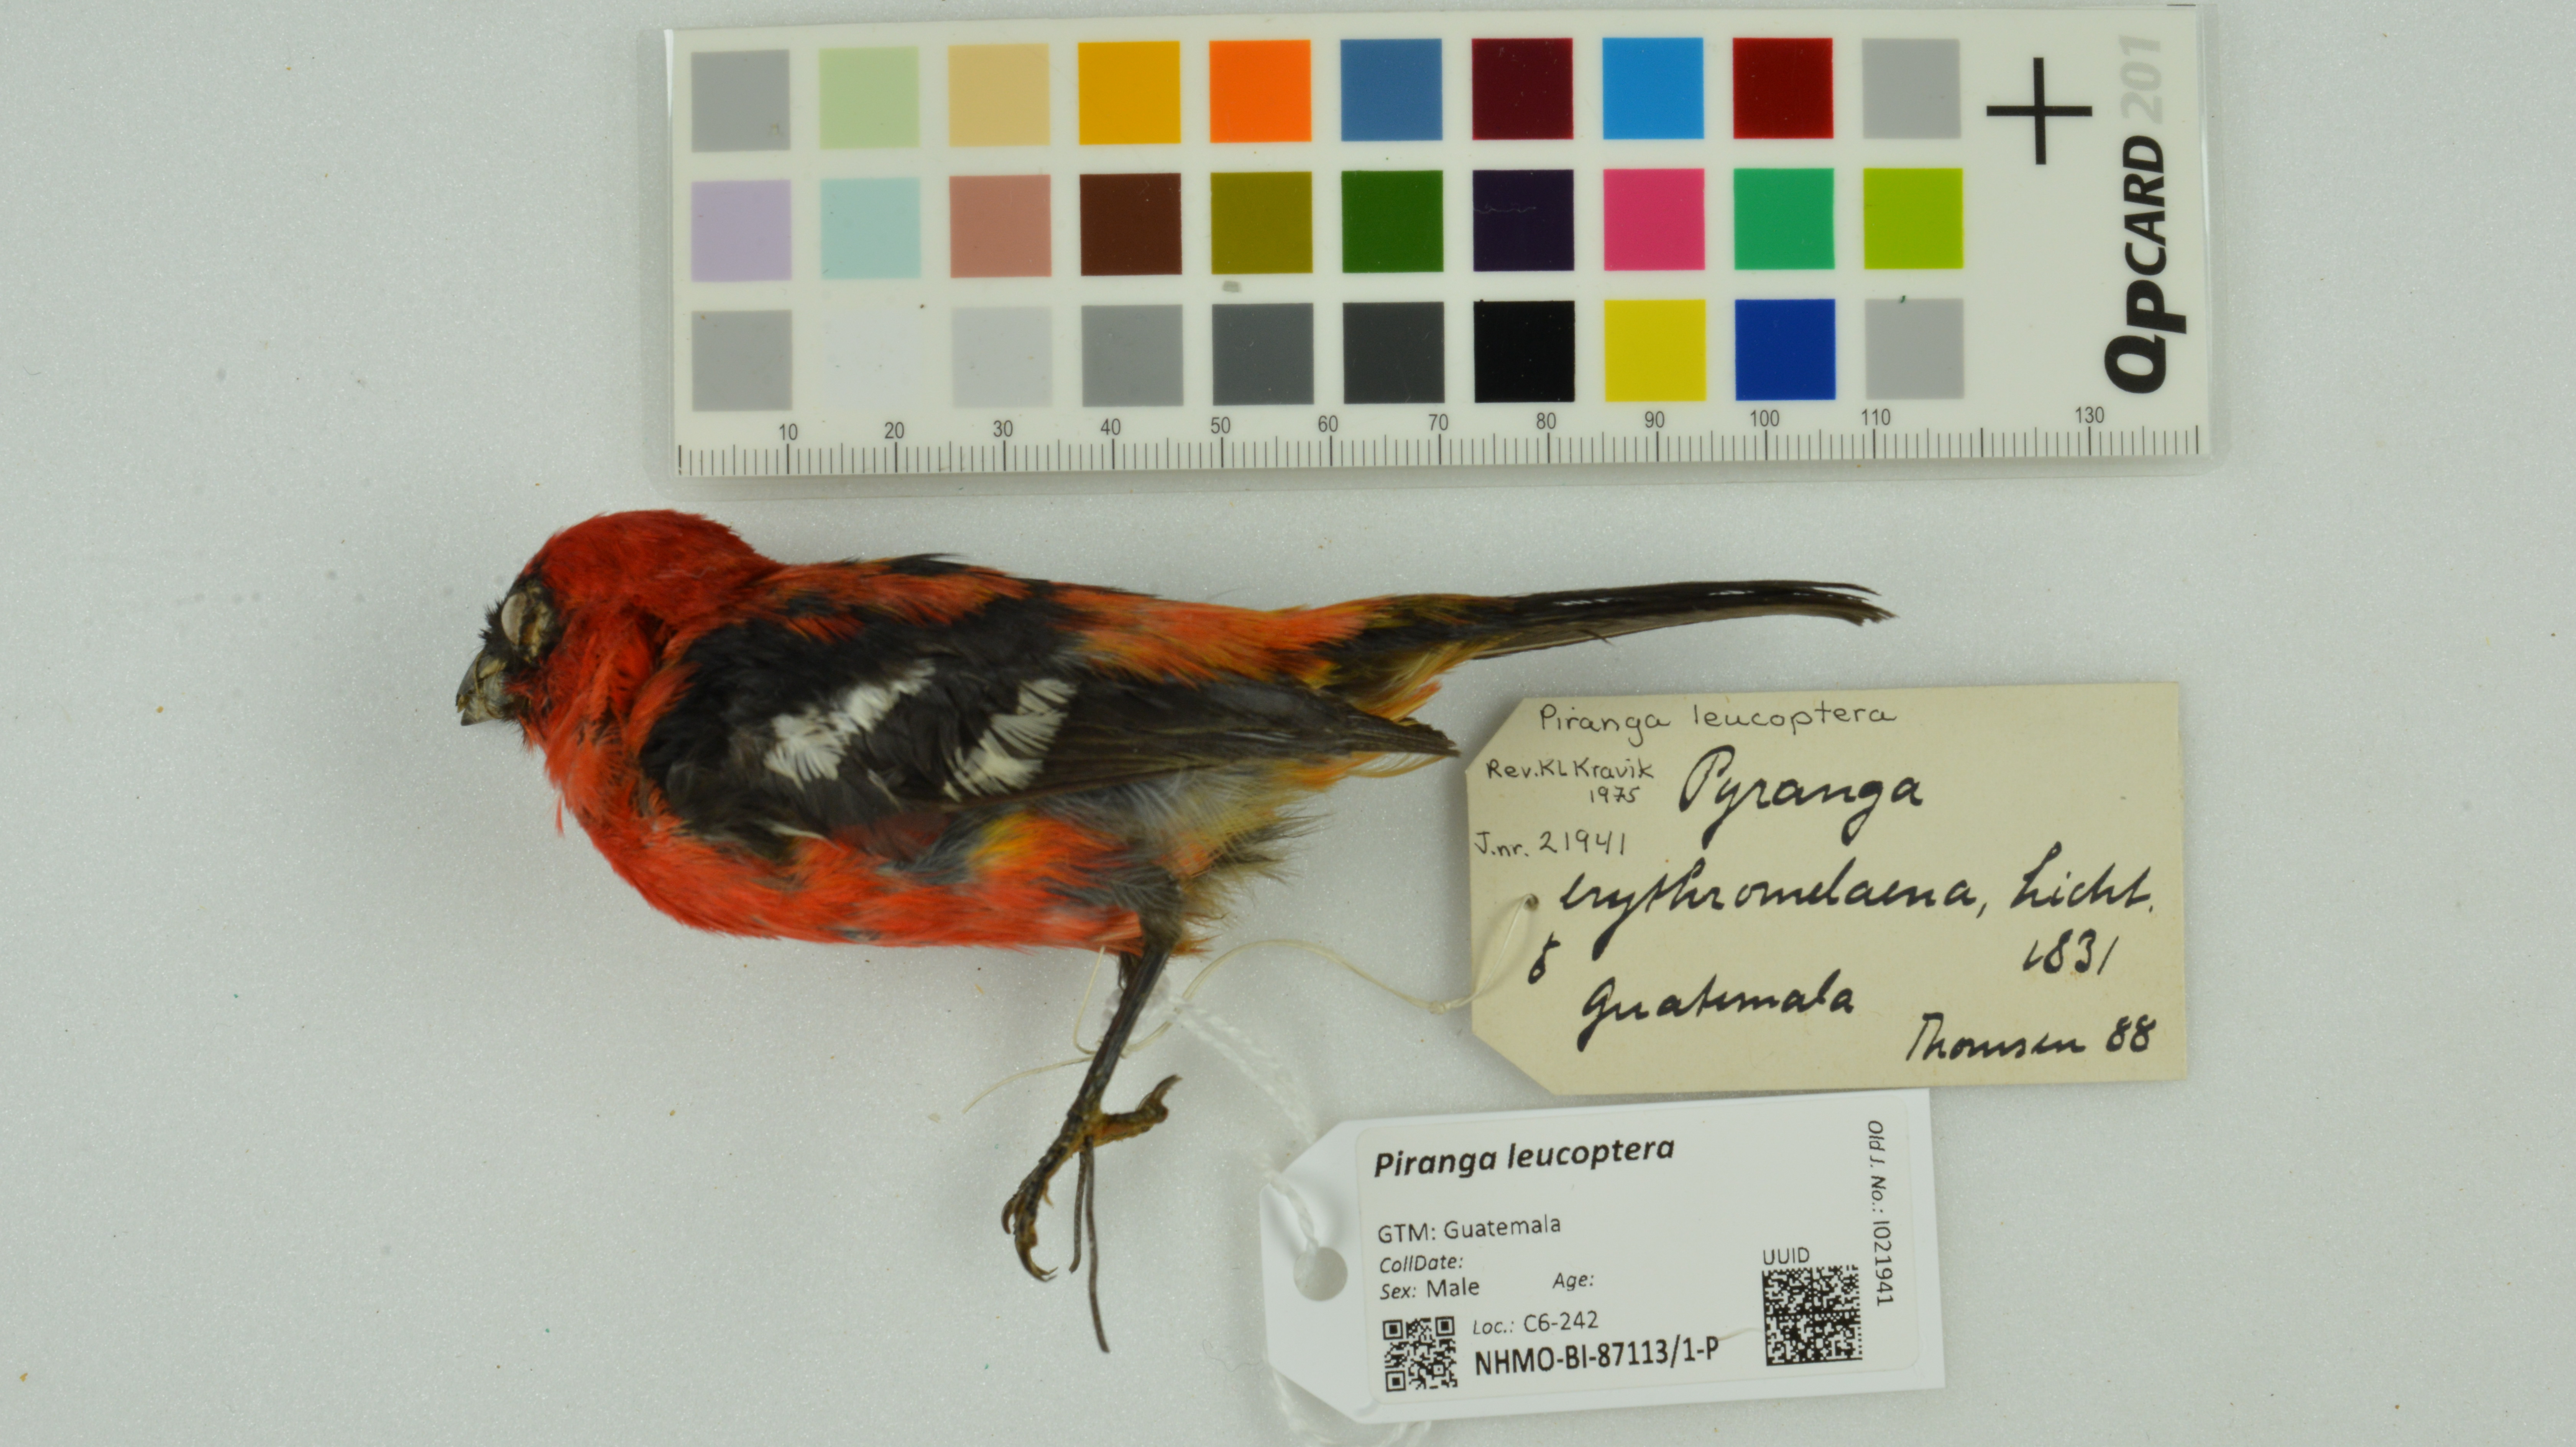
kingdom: Animalia
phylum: Chordata
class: Aves
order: Passeriformes
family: Cardinalidae
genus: Piranga
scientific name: Piranga leucoptera
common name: White-winged tanager
